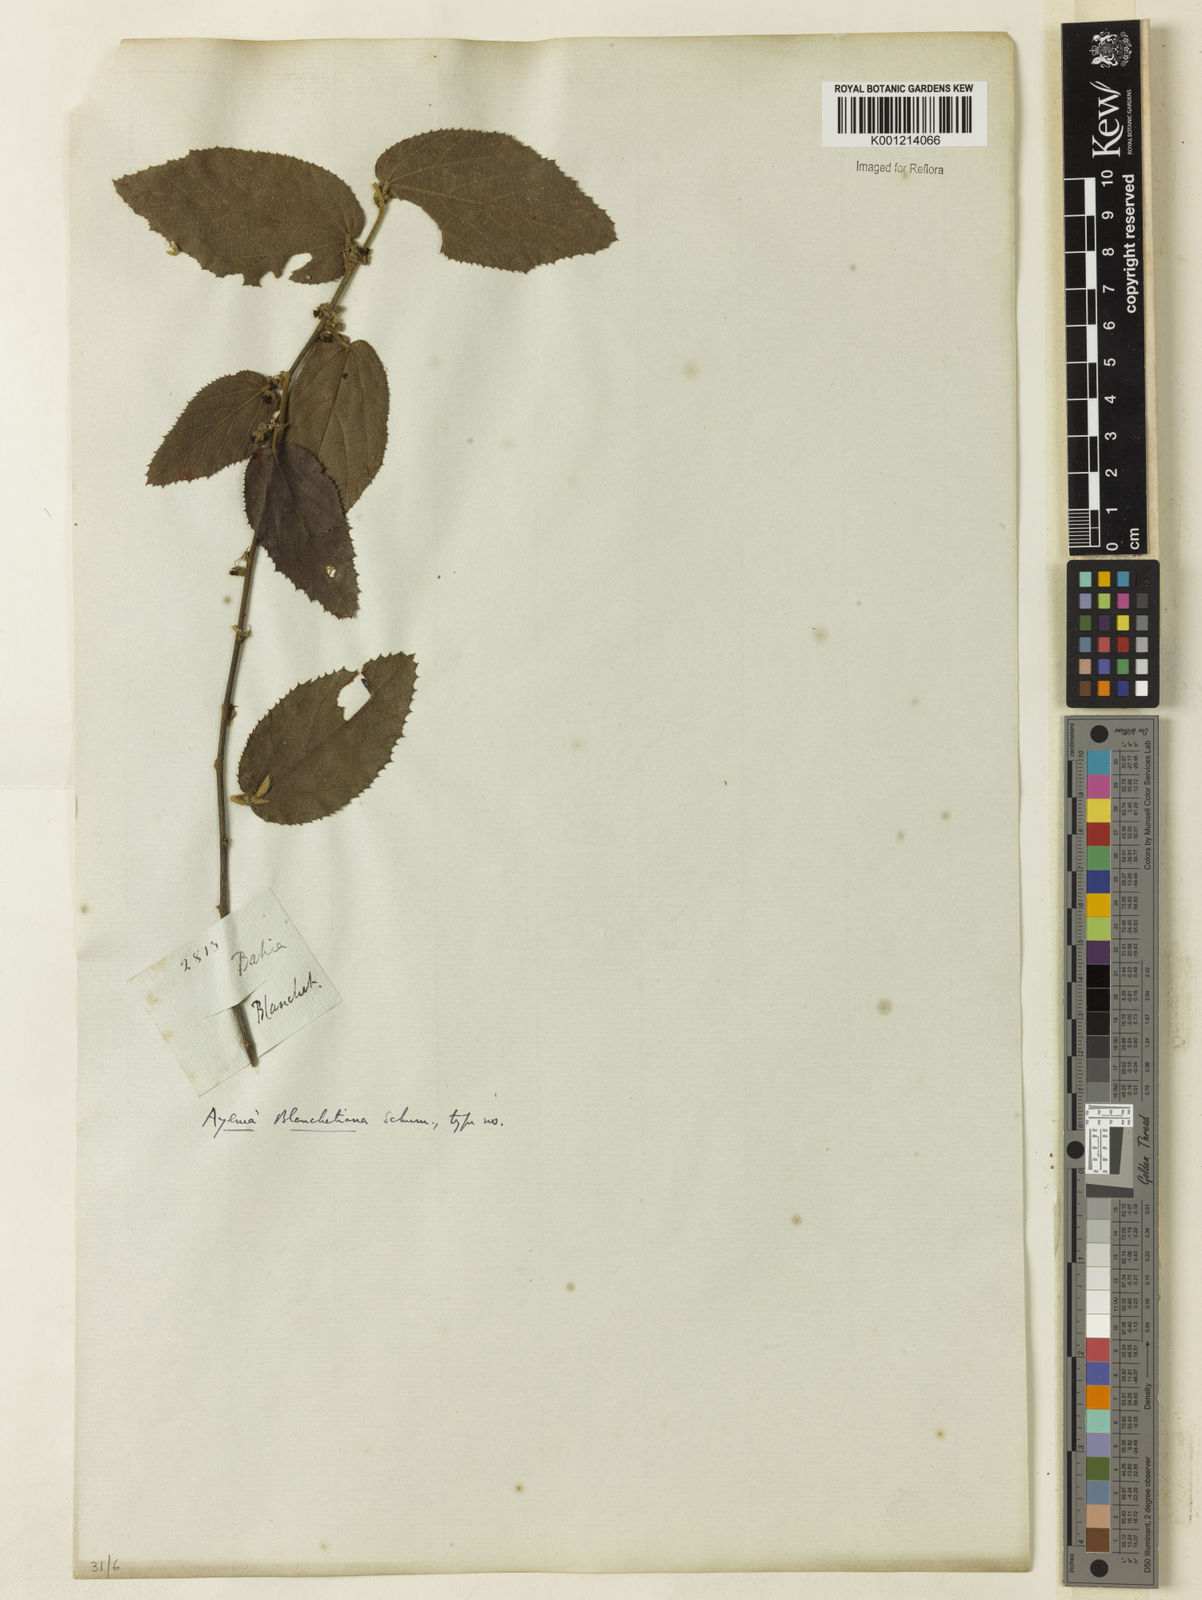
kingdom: Plantae
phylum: Tracheophyta
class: Magnoliopsida
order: Malvales
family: Malvaceae
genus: Ayenia
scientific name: Ayenia blanchetiana
